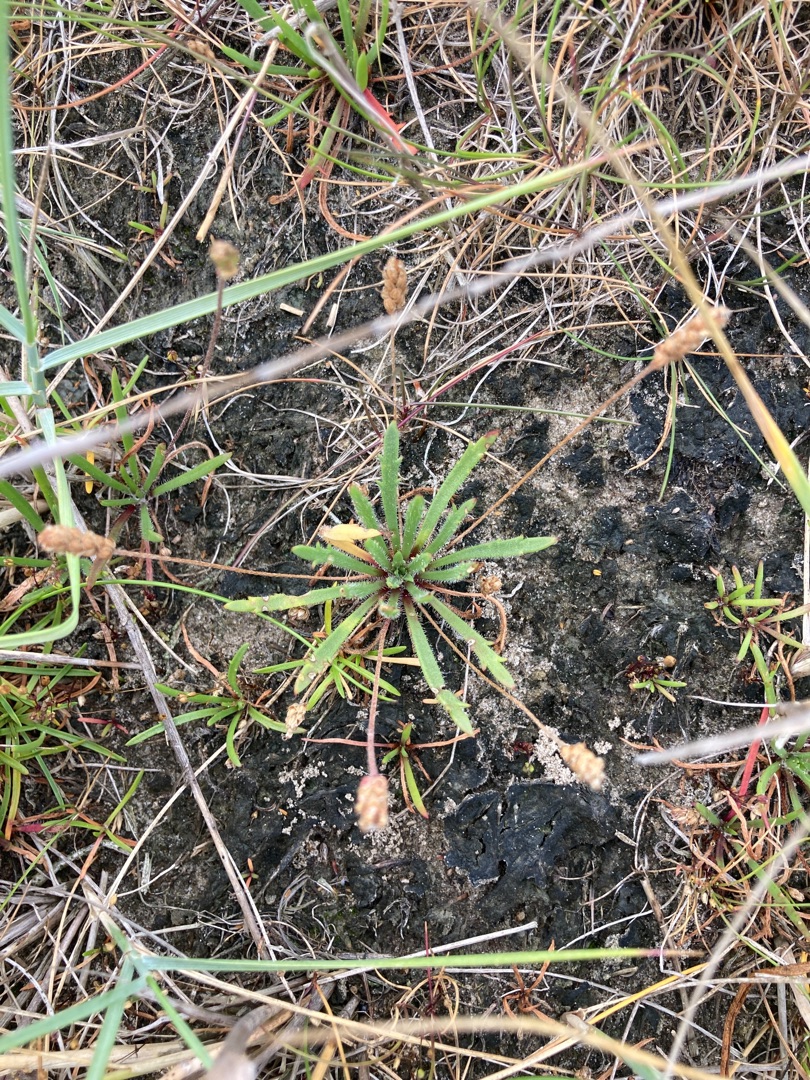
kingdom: Plantae
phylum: Tracheophyta
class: Magnoliopsida
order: Lamiales
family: Plantaginaceae
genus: Plantago
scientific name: Plantago coronopus
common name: Fliget vejbred
